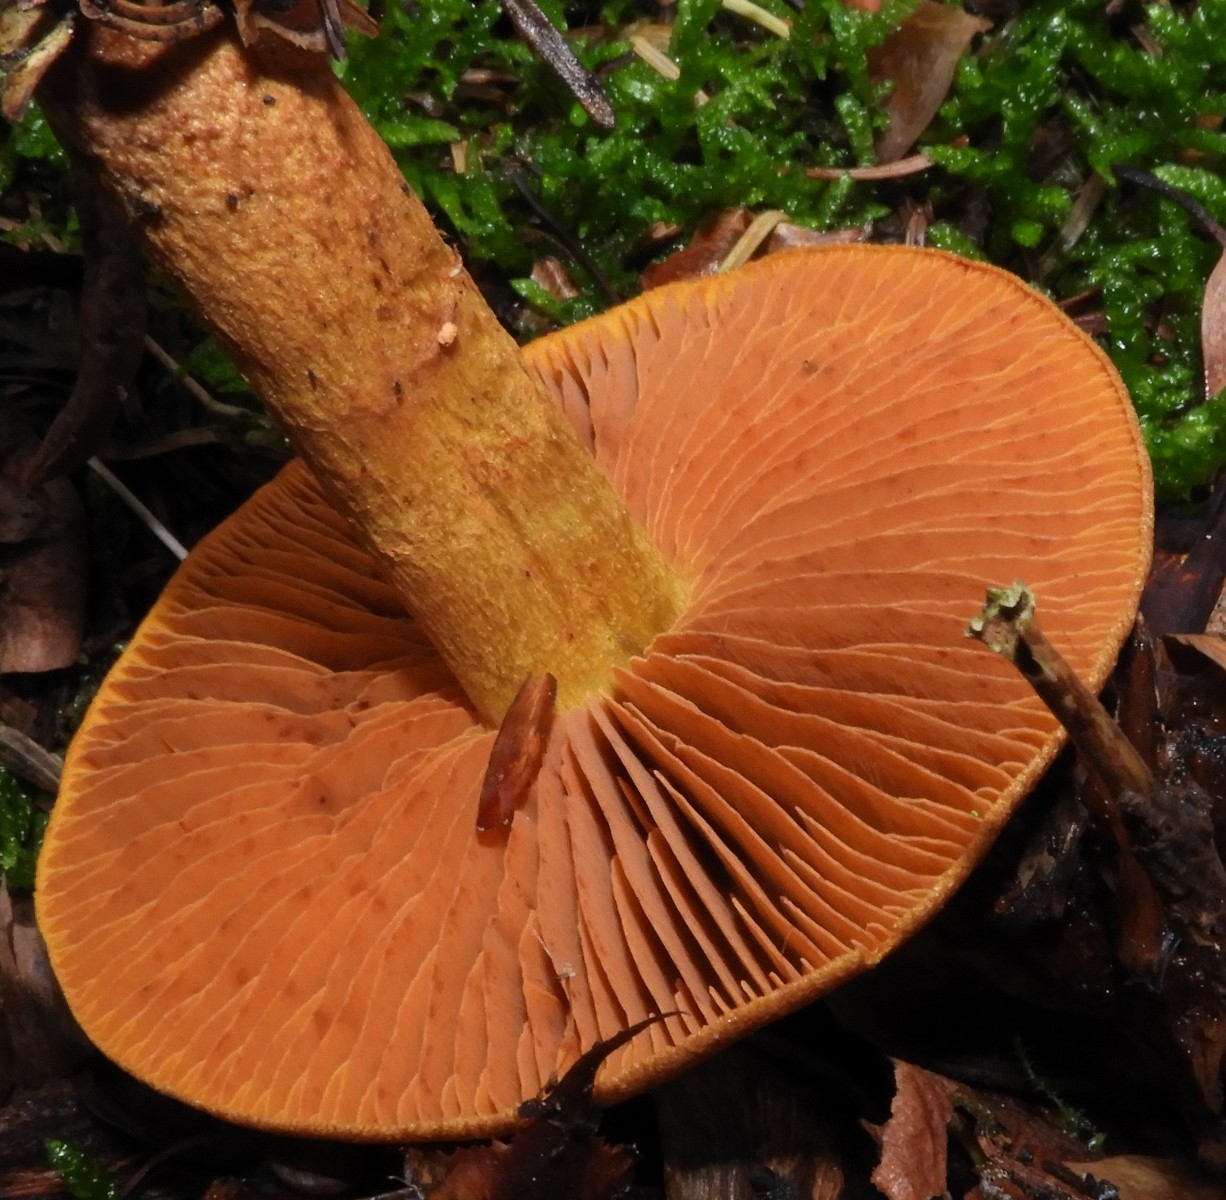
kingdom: Fungi
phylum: Basidiomycota
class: Agaricomycetes
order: Agaricales
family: Cortinariaceae
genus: Cortinarius
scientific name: Cortinarius cinnamomeus
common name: kanel-slørhat
